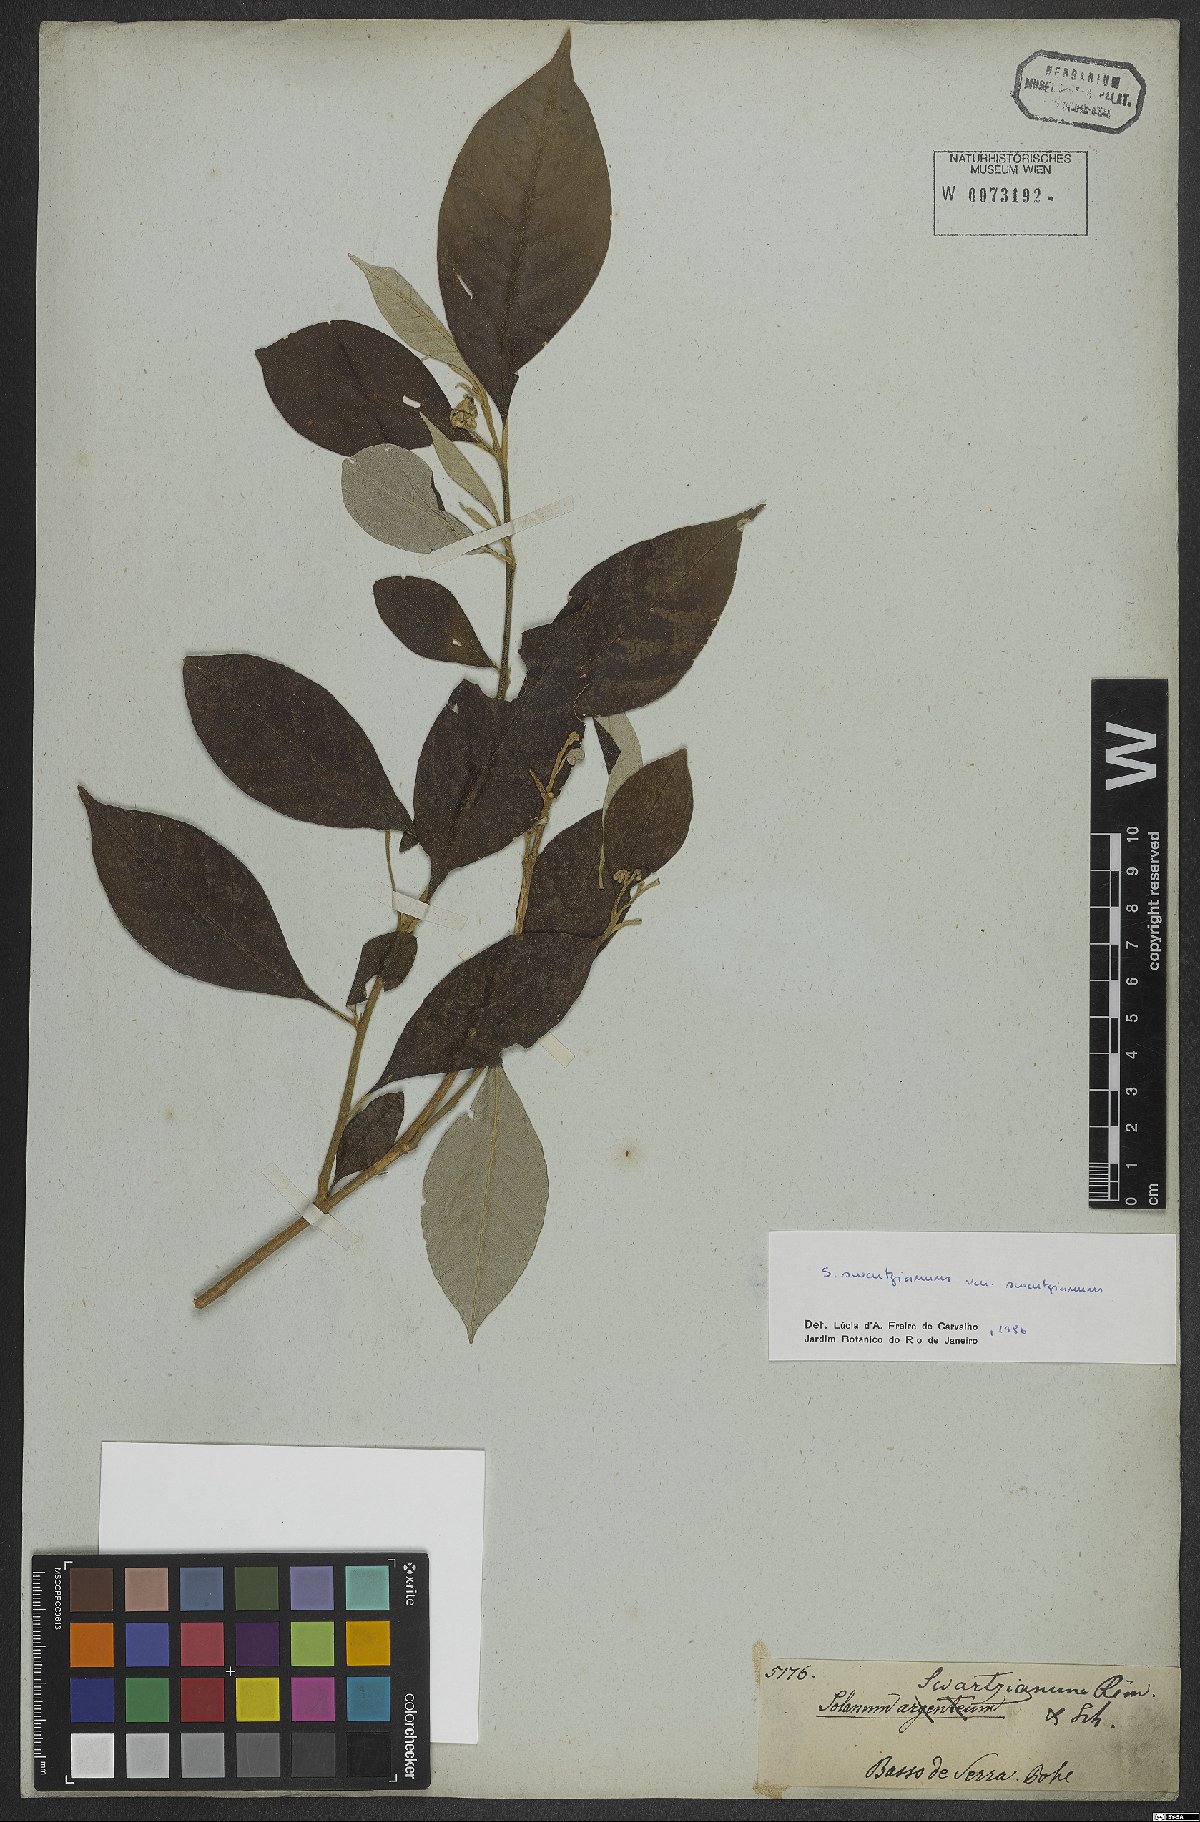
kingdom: Plantae
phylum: Tracheophyta
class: Magnoliopsida
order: Solanales
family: Solanaceae
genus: Solanum
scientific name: Solanum swartzianum
